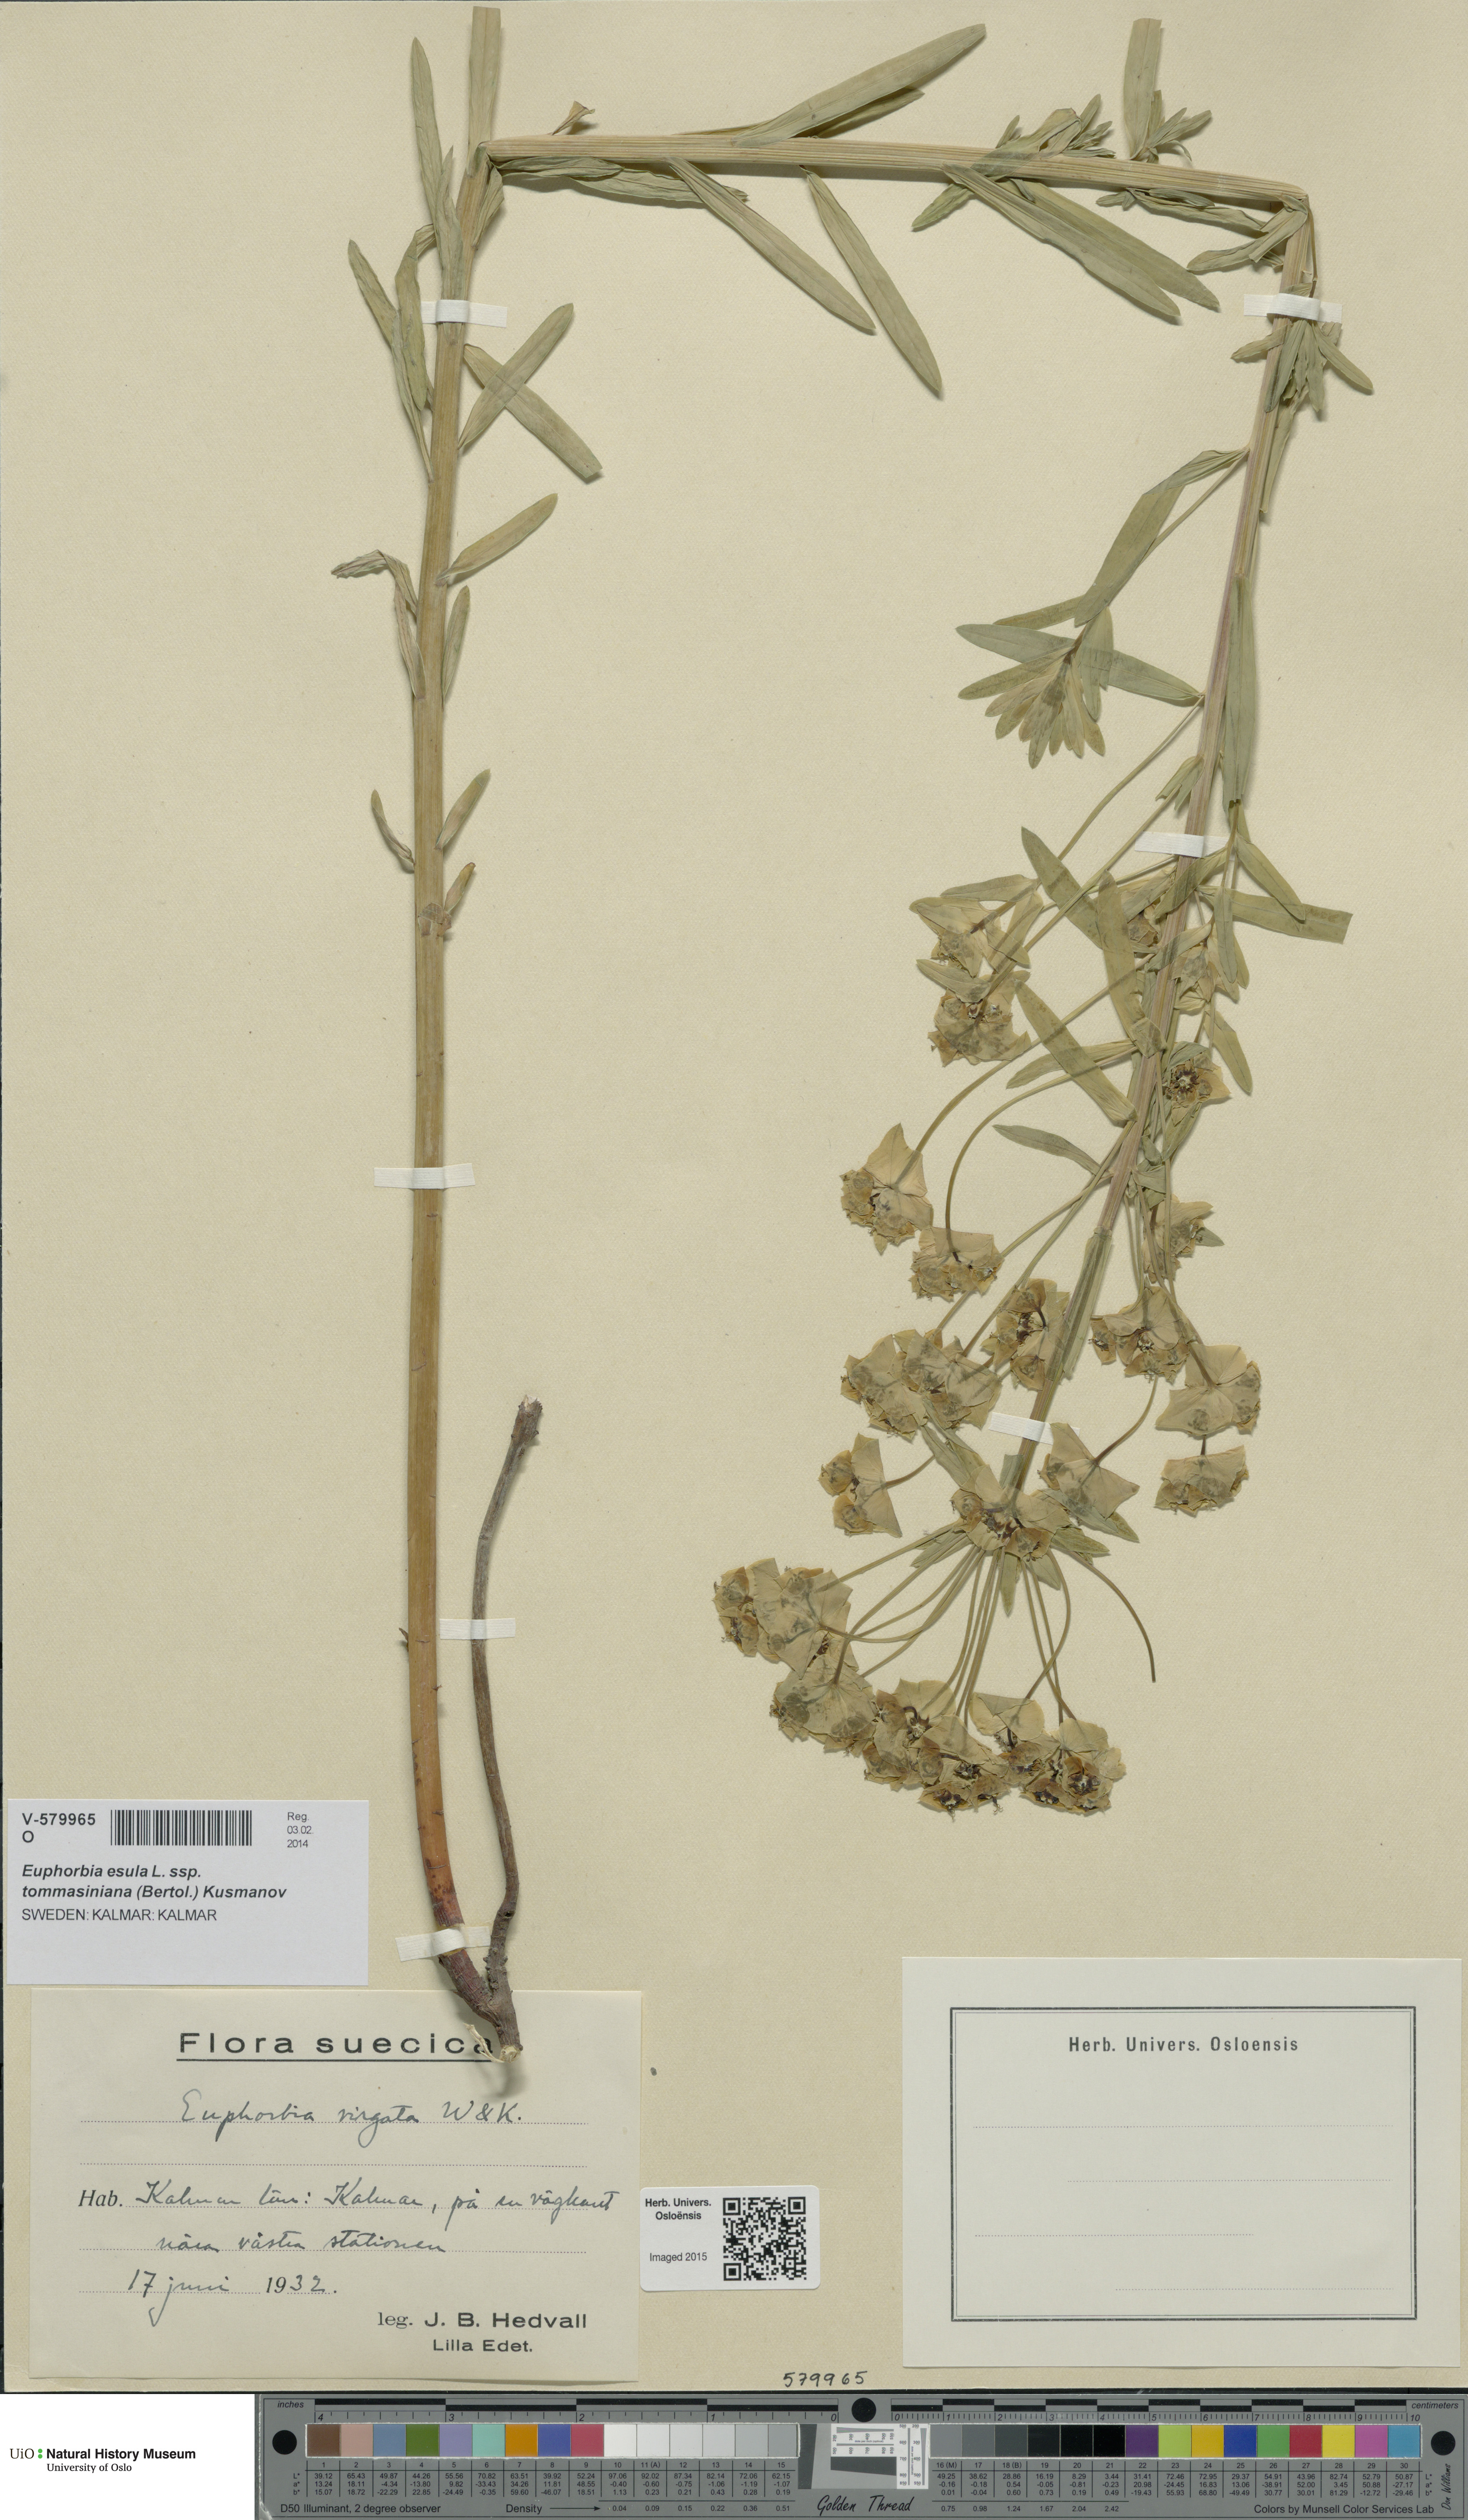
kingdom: Plantae
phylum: Tracheophyta
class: Magnoliopsida
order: Malpighiales
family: Euphorbiaceae
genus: Euphorbia
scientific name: Euphorbia tommasiniana
